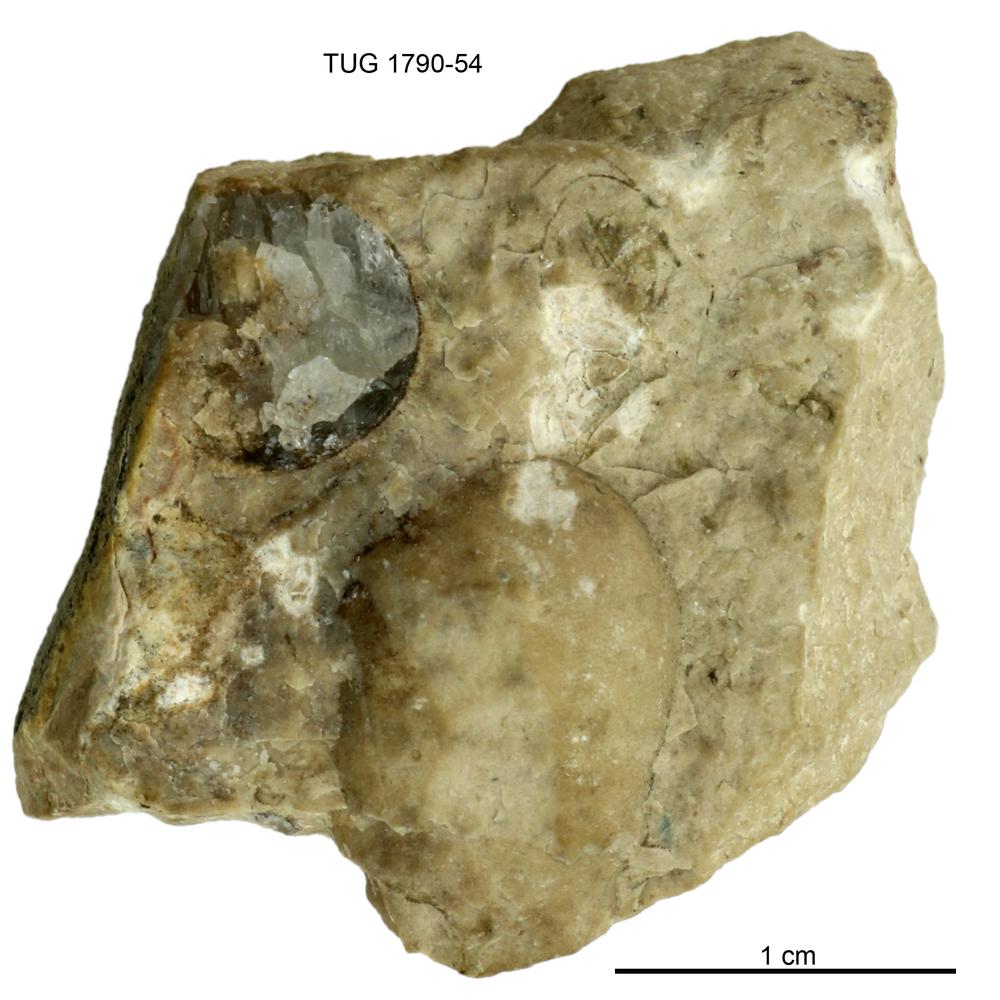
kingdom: Animalia
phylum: Porifera
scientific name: Porifera
